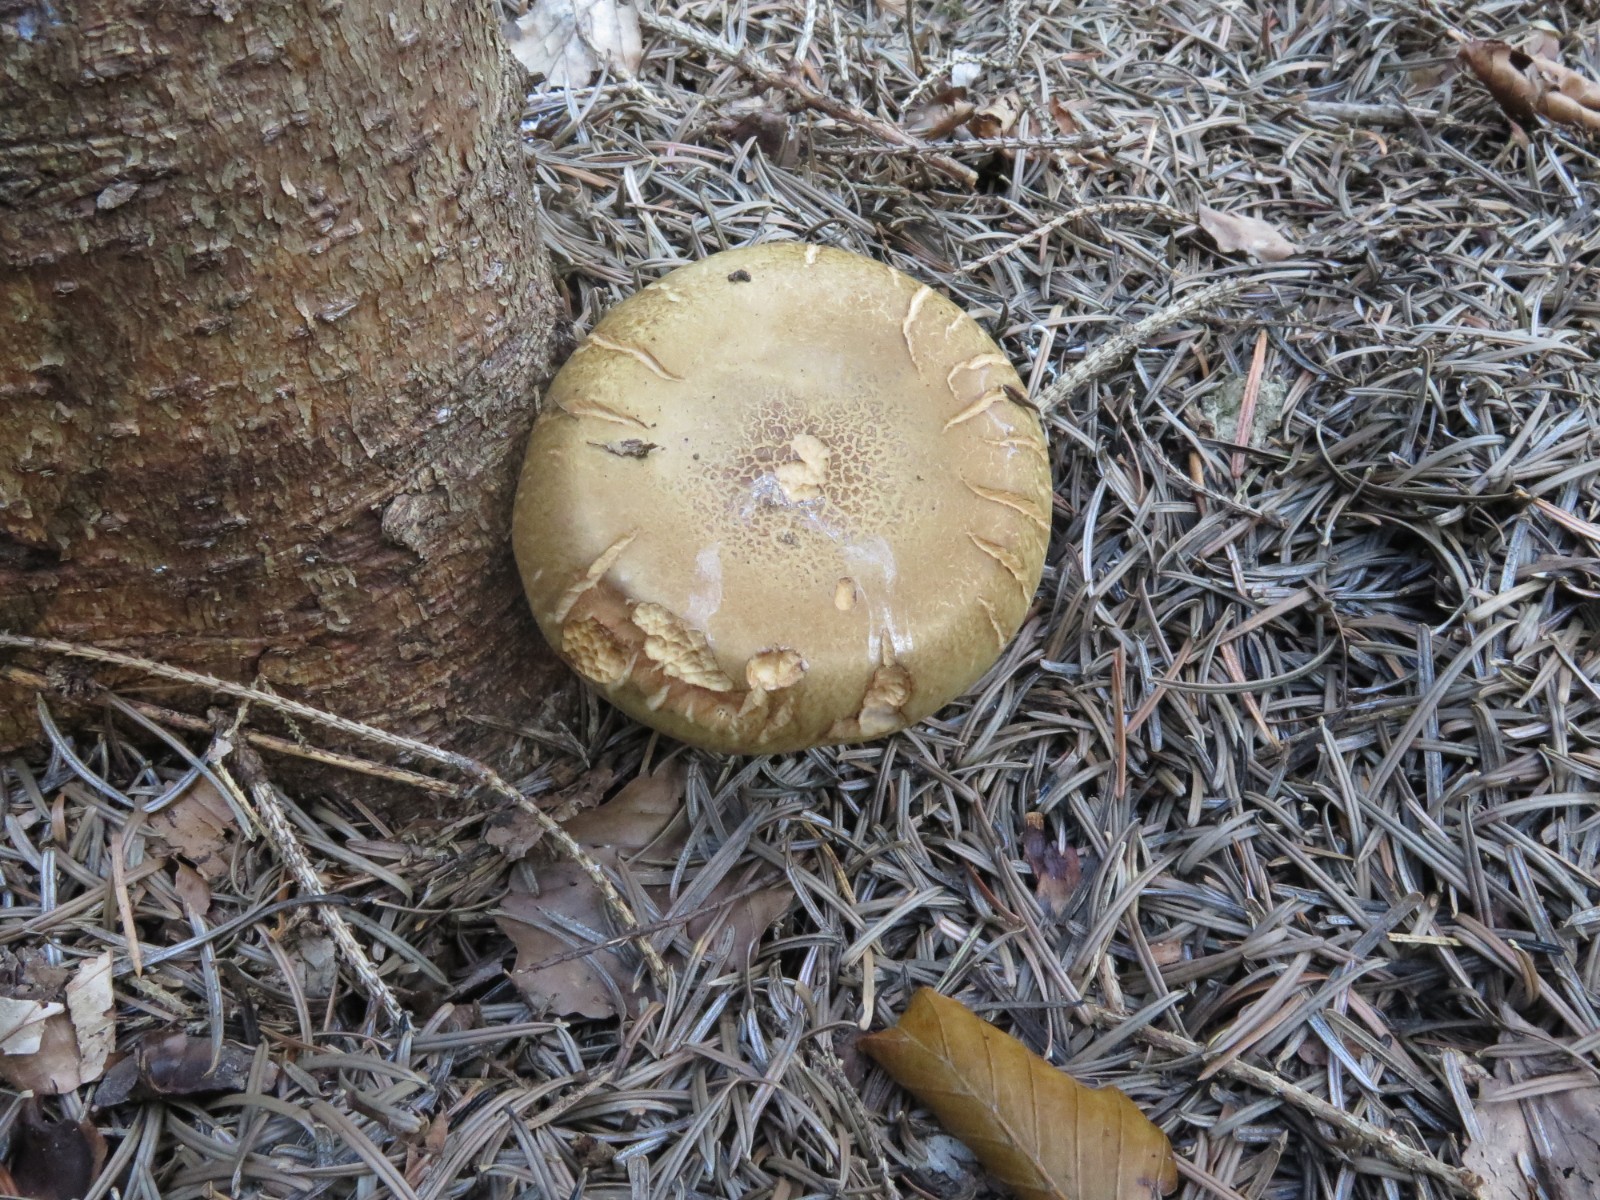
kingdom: Fungi
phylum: Basidiomycota
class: Agaricomycetes
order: Boletales
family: Paxillaceae
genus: Paxillus
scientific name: Paxillus involutus
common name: almindelig netbladhat
